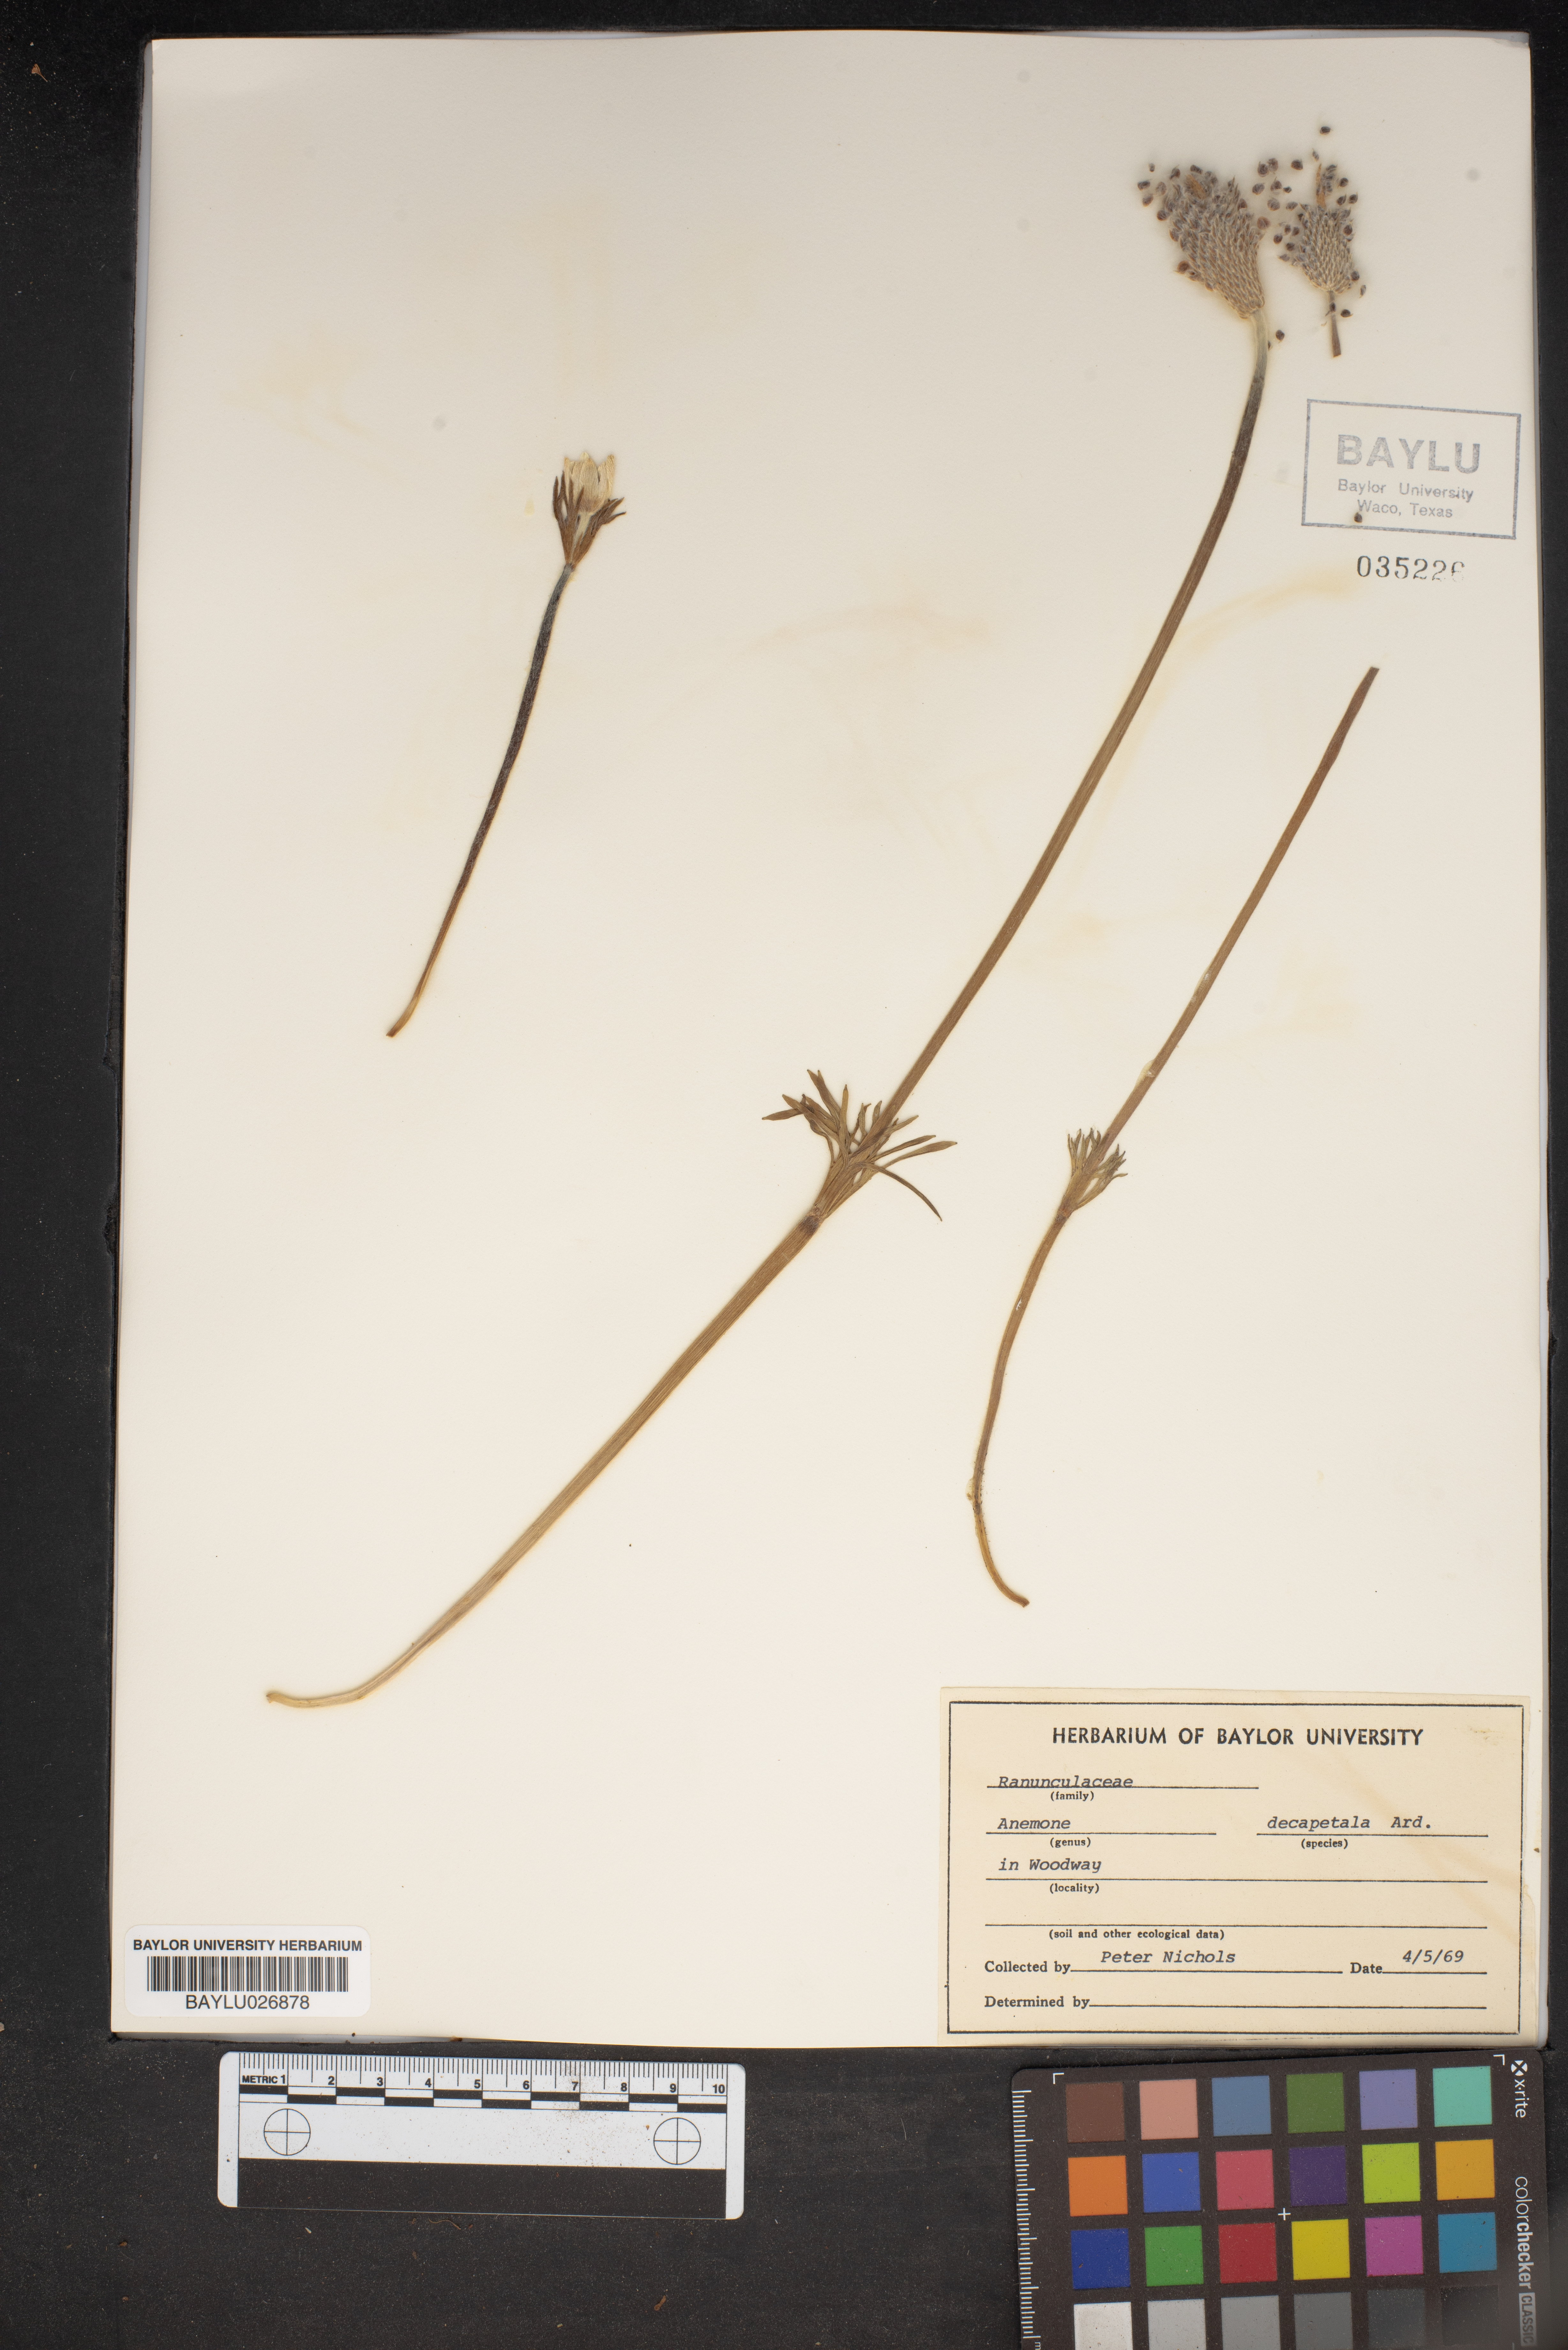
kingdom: Plantae
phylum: Tracheophyta
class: Magnoliopsida
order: Ranunculales
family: Ranunculaceae
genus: Anemone
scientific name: Anemone decapetala
